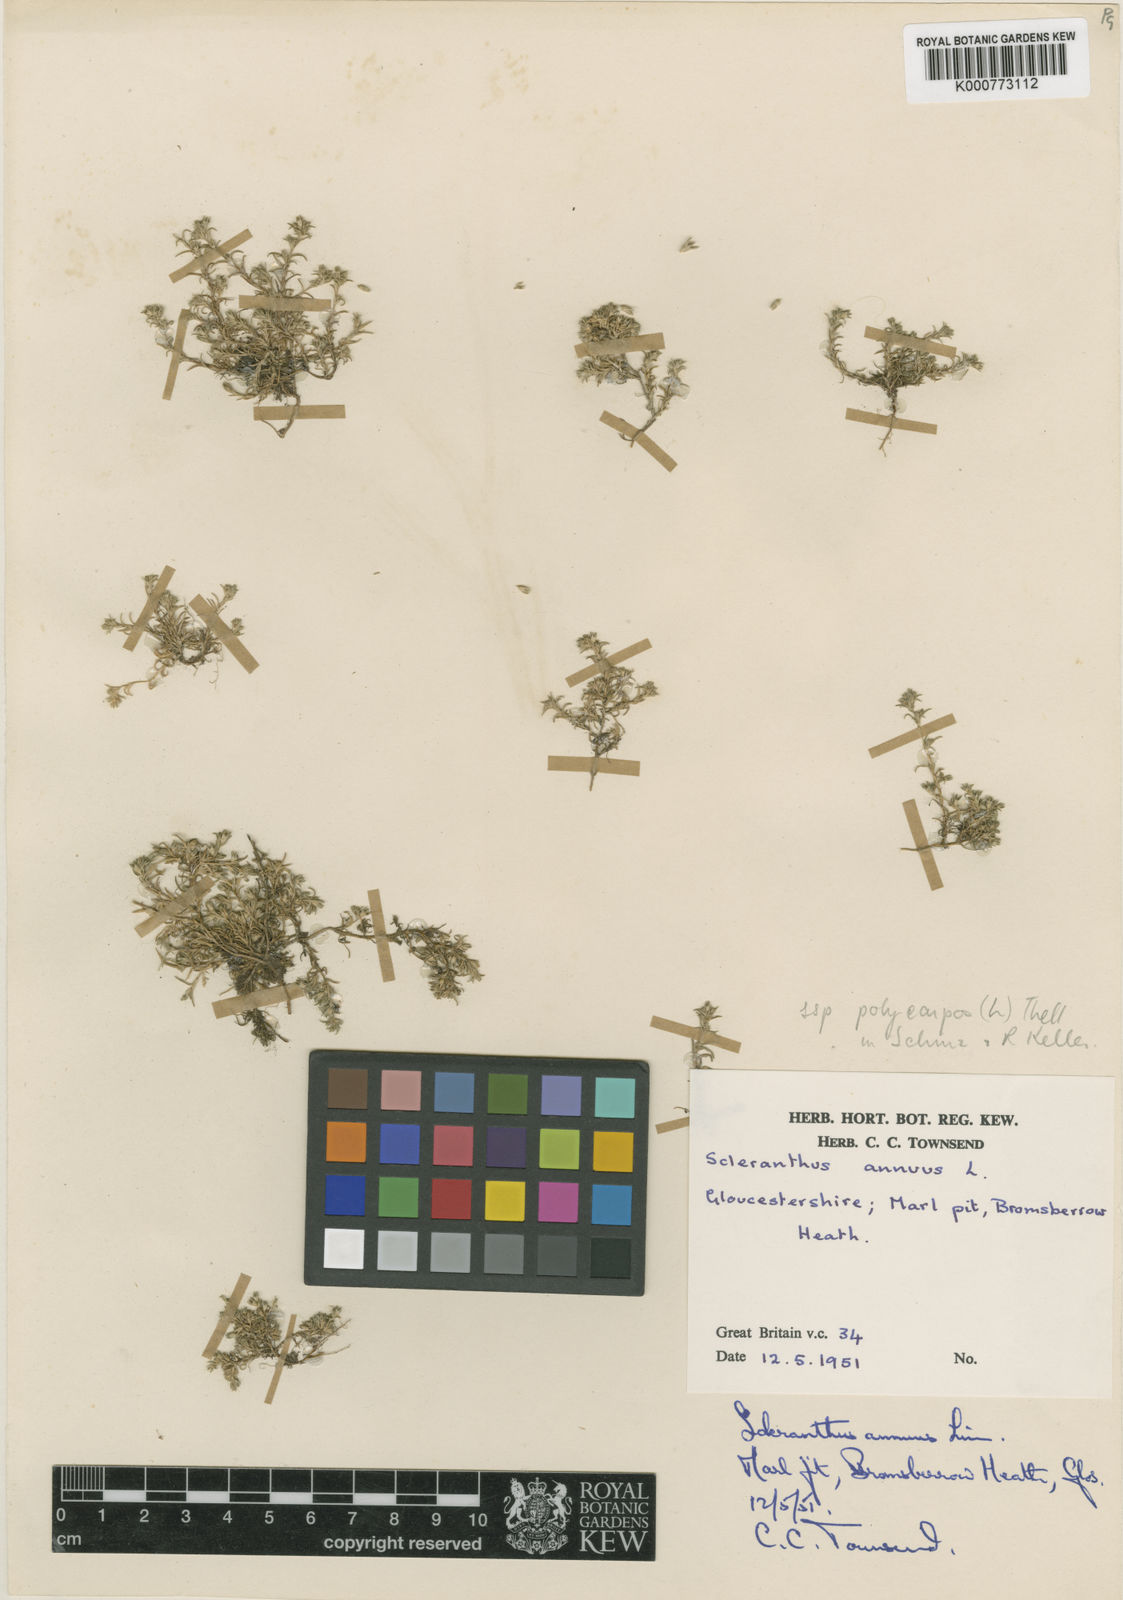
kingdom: Plantae
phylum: Tracheophyta
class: Magnoliopsida
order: Caryophyllales
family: Caryophyllaceae
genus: Scleranthus
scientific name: Scleranthus annuus
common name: Annual knawel
